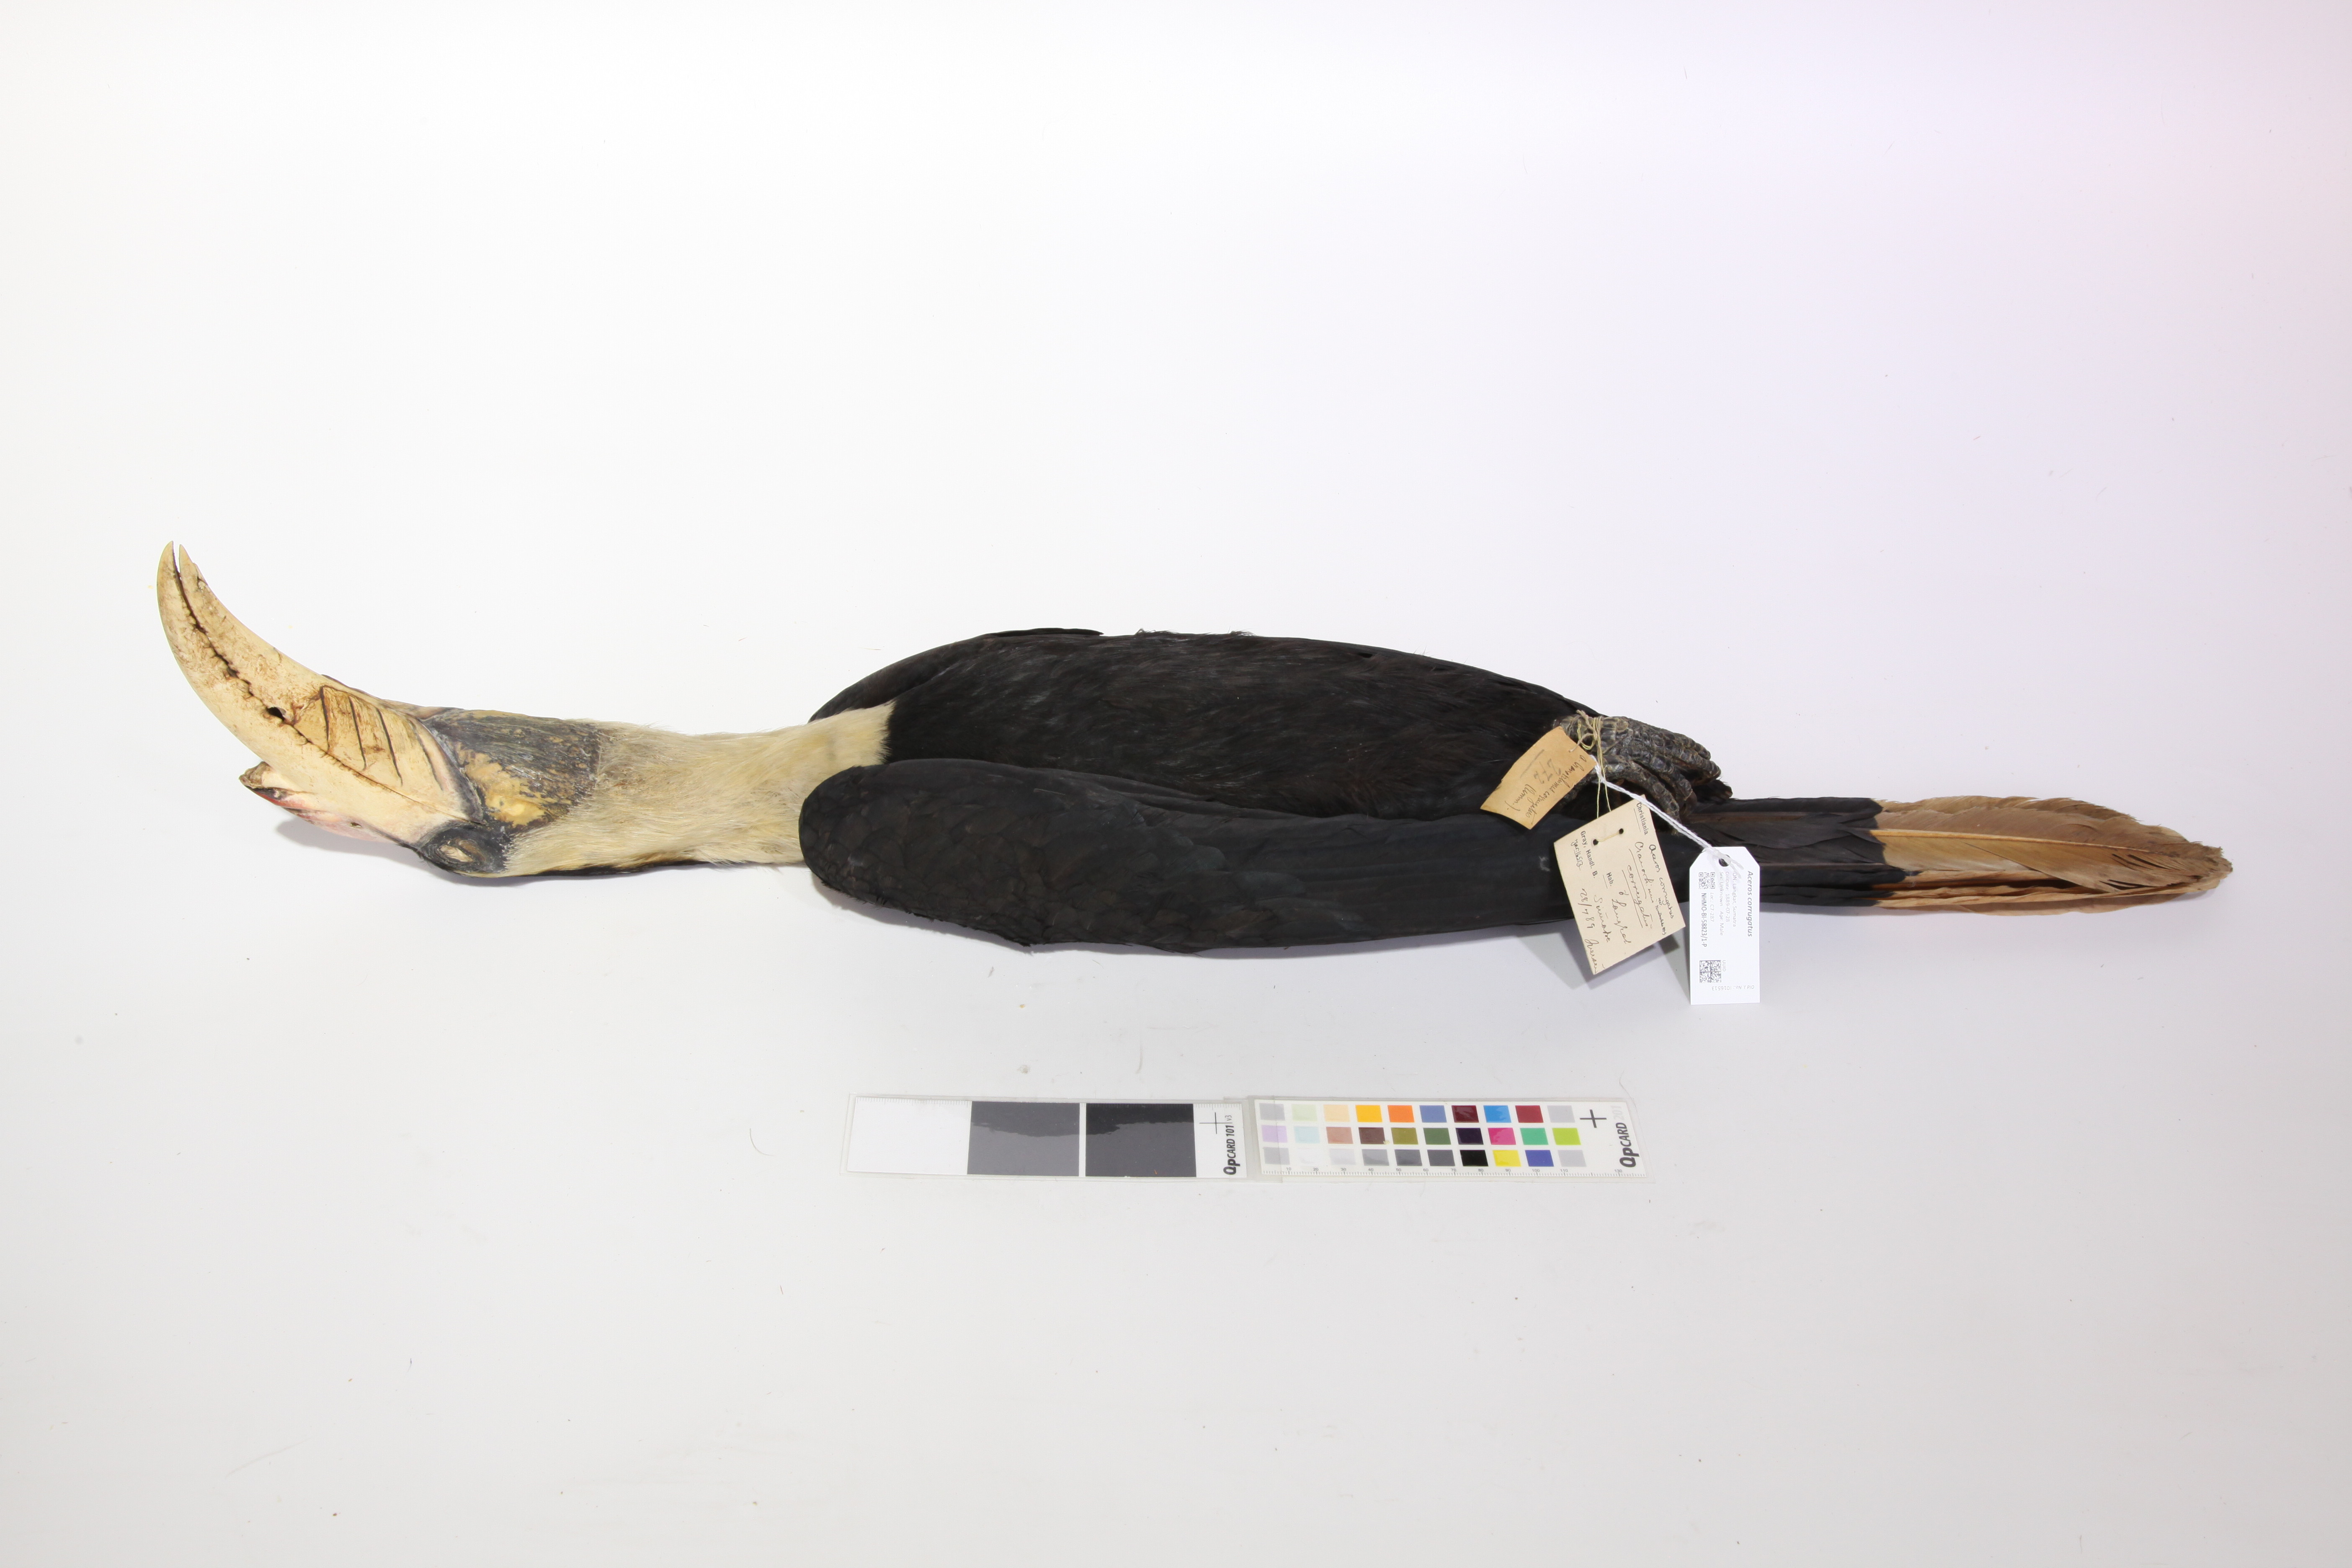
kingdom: Animalia
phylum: Chordata
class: Aves
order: Bucerotiformes
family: Bucerotidae
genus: Rhabdotorrhinus
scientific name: Rhabdotorrhinus corrugatus
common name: Wrinkled hornbill
